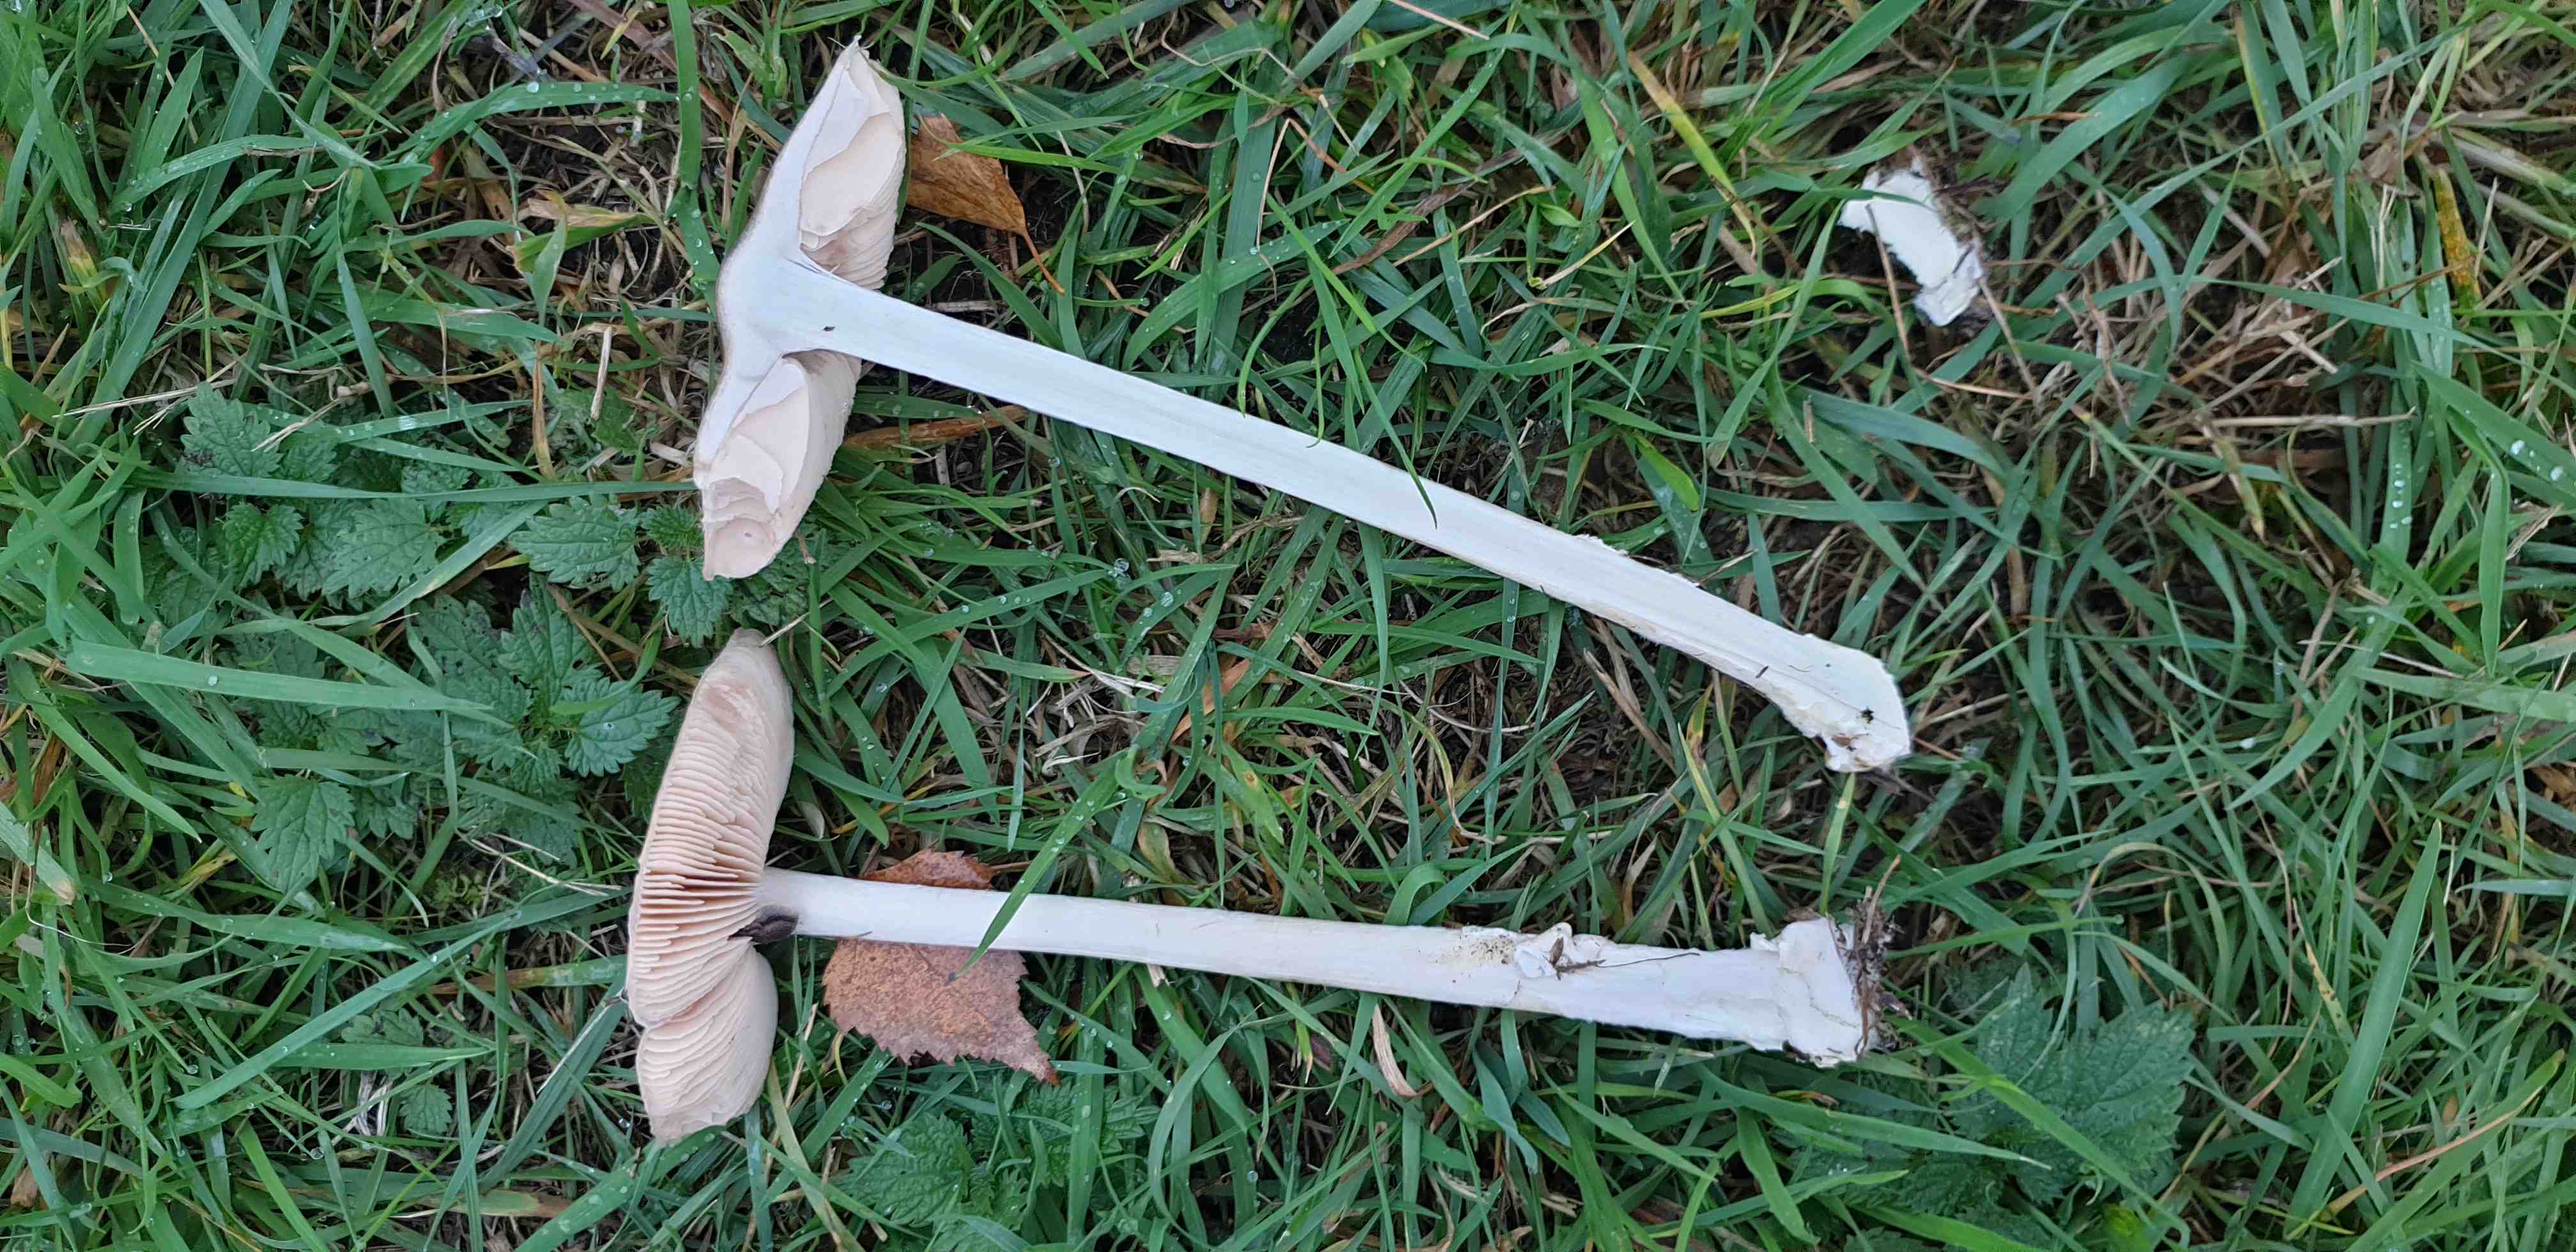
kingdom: Fungi
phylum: Basidiomycota
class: Agaricomycetes
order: Agaricales
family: Pluteaceae
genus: Volvopluteus
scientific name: Volvopluteus gloiocephalus
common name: høj posesvamp
